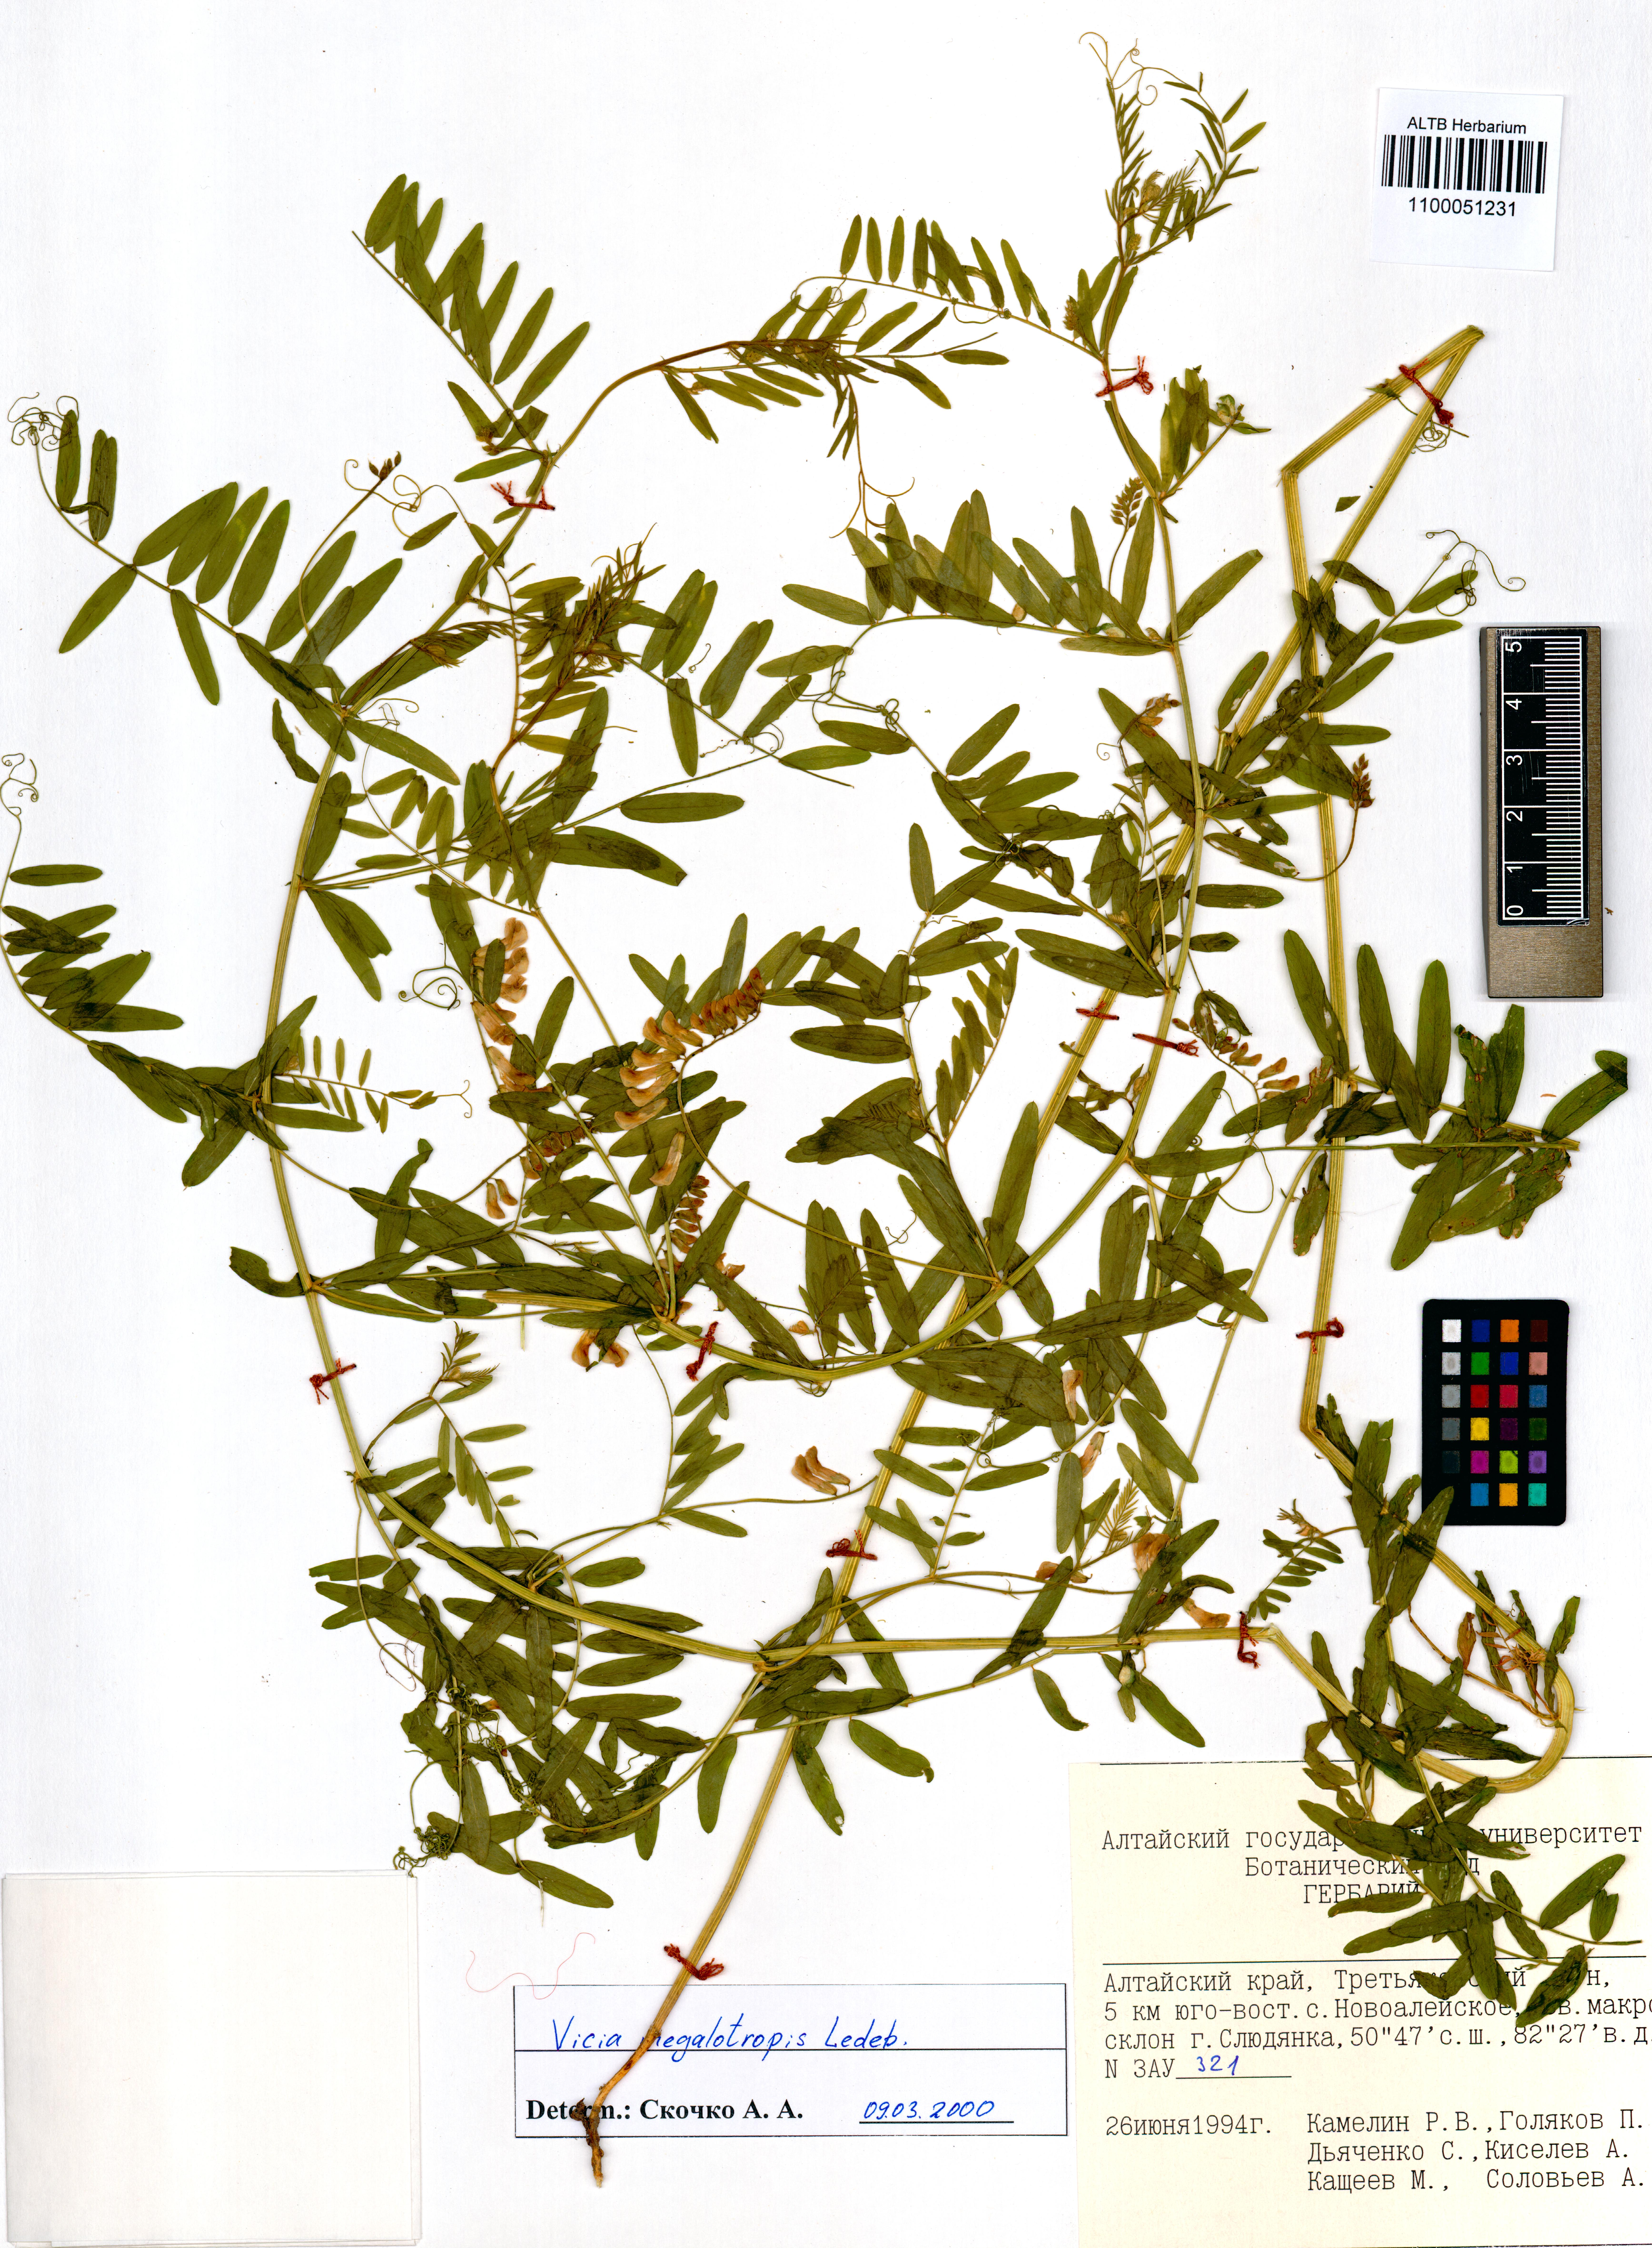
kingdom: Plantae
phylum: Tracheophyta
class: Magnoliopsida
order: Fabales
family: Fabaceae
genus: Vicia
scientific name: Vicia megalotropis
